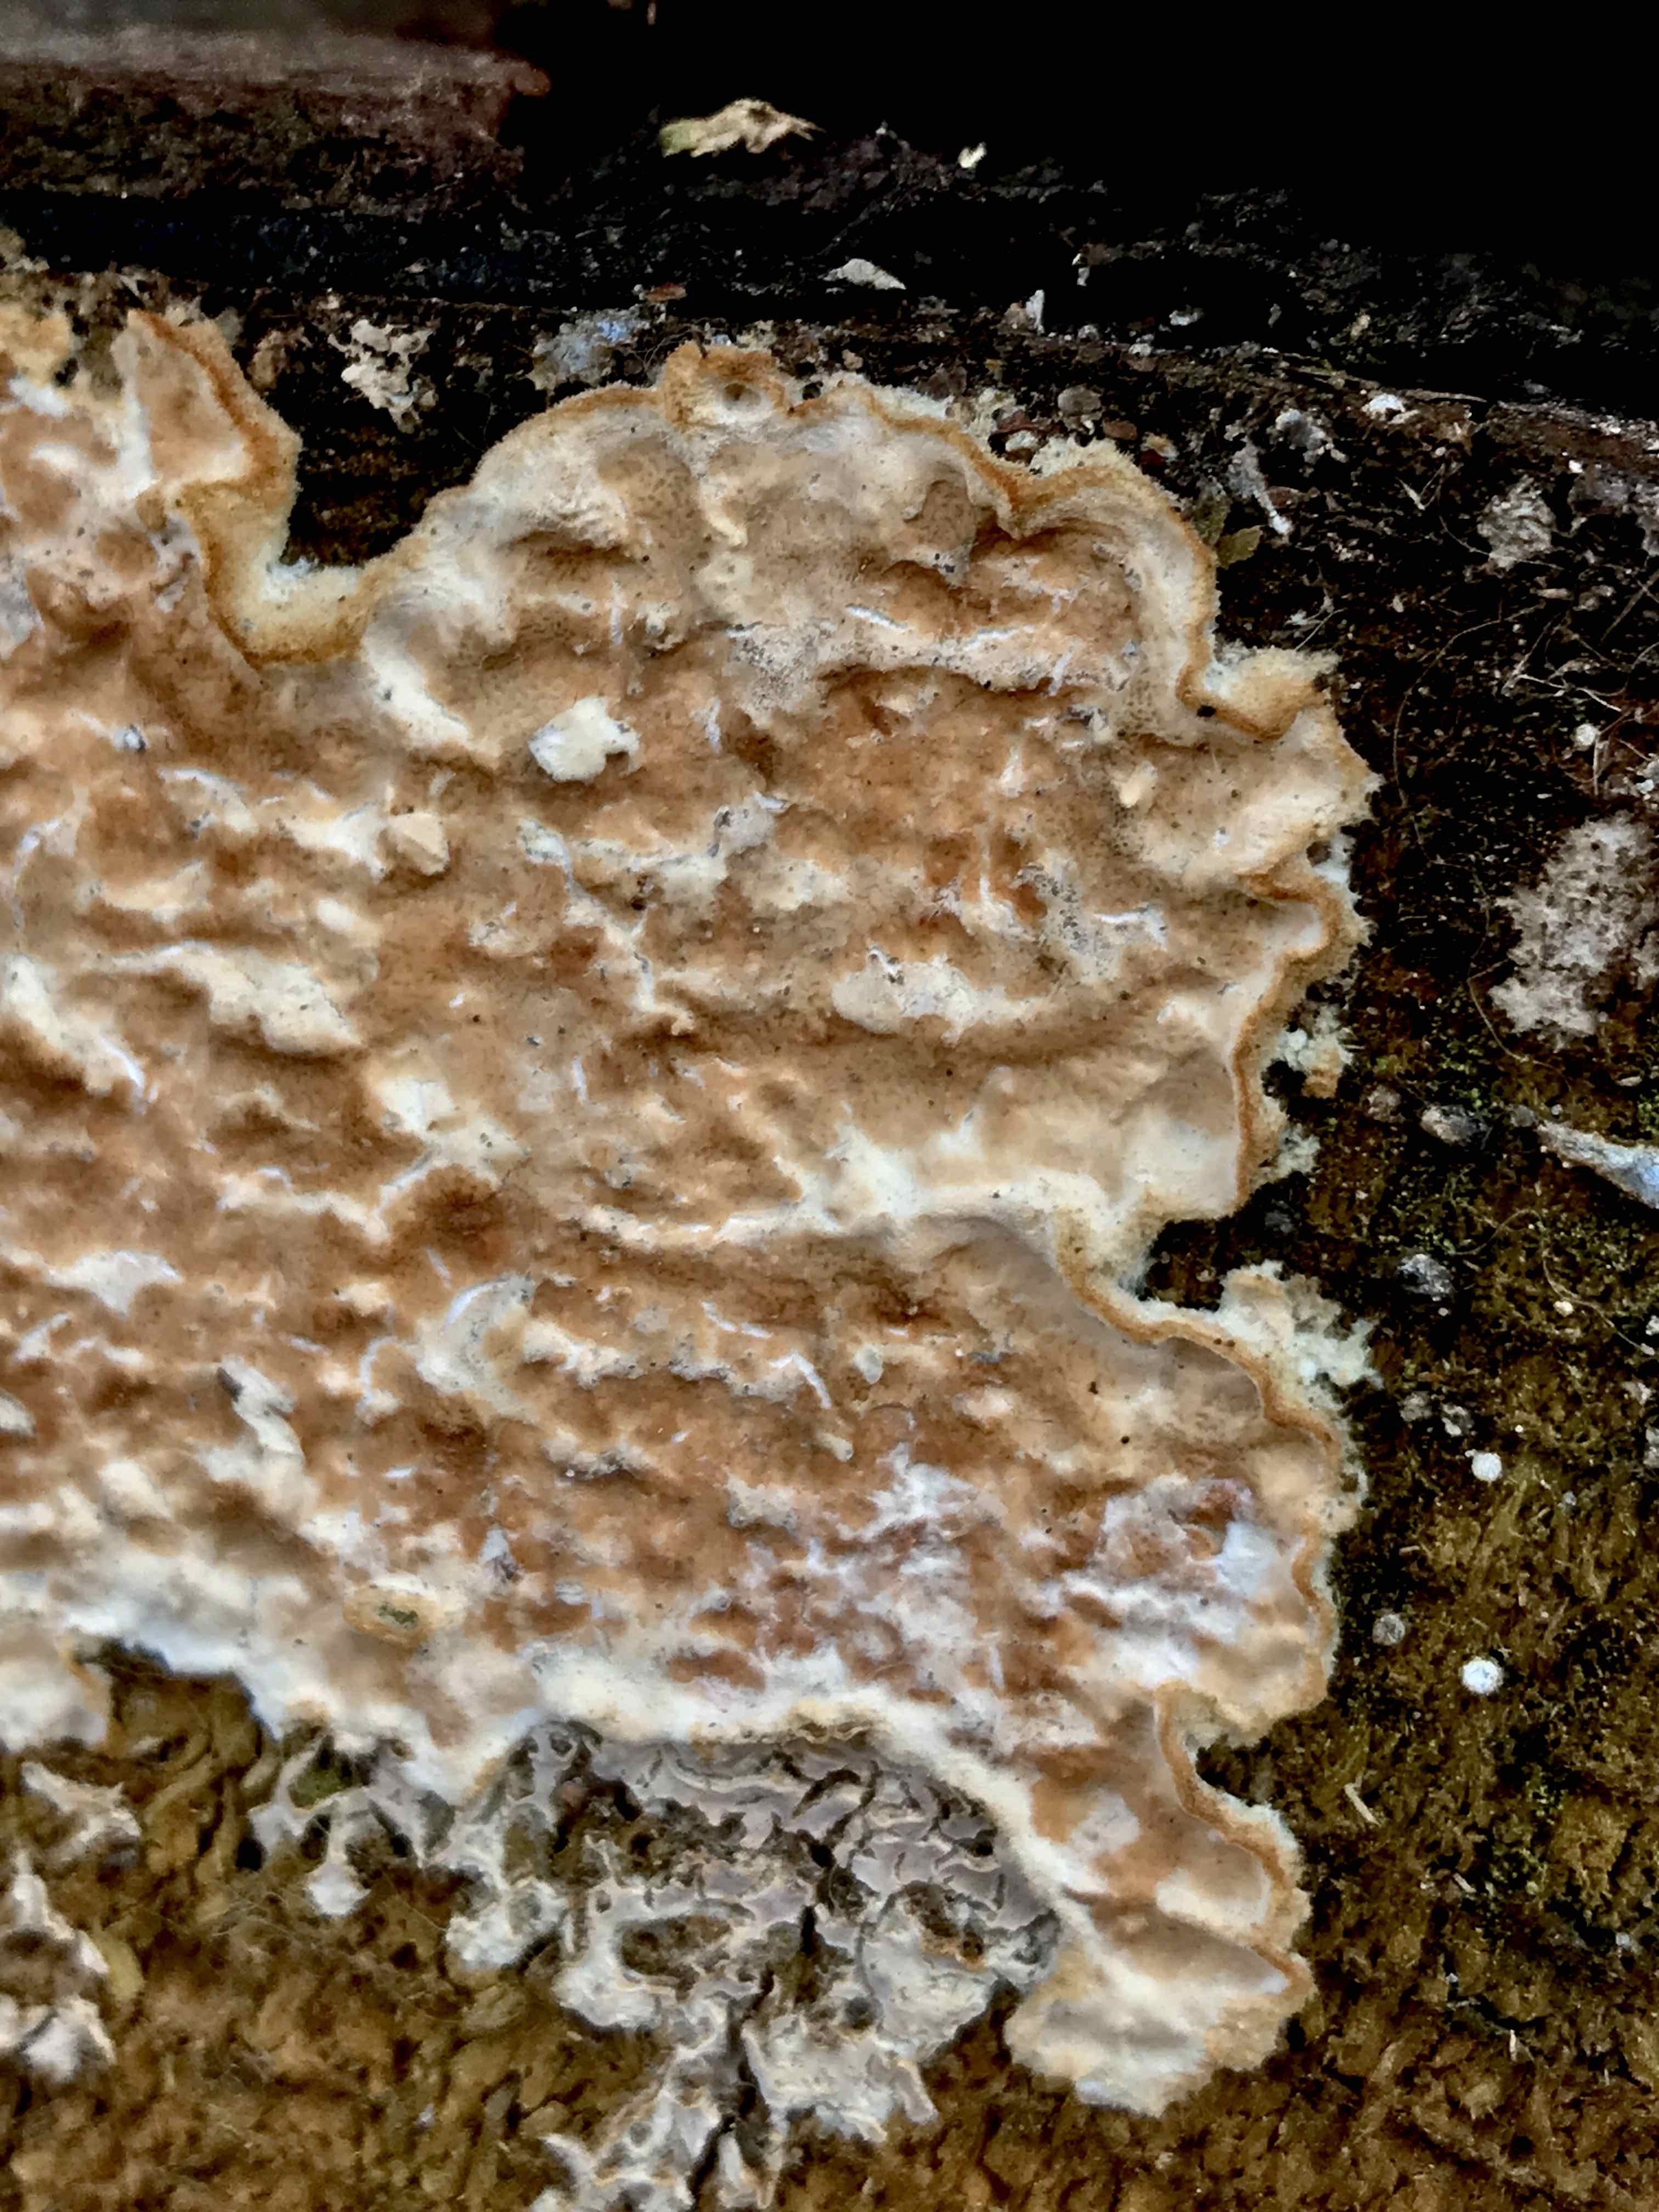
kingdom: Fungi
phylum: Basidiomycota
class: Agaricomycetes
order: Agaricales
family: Physalacriaceae
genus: Cylindrobasidium
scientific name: Cylindrobasidium evolvens
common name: sprækkehinde
